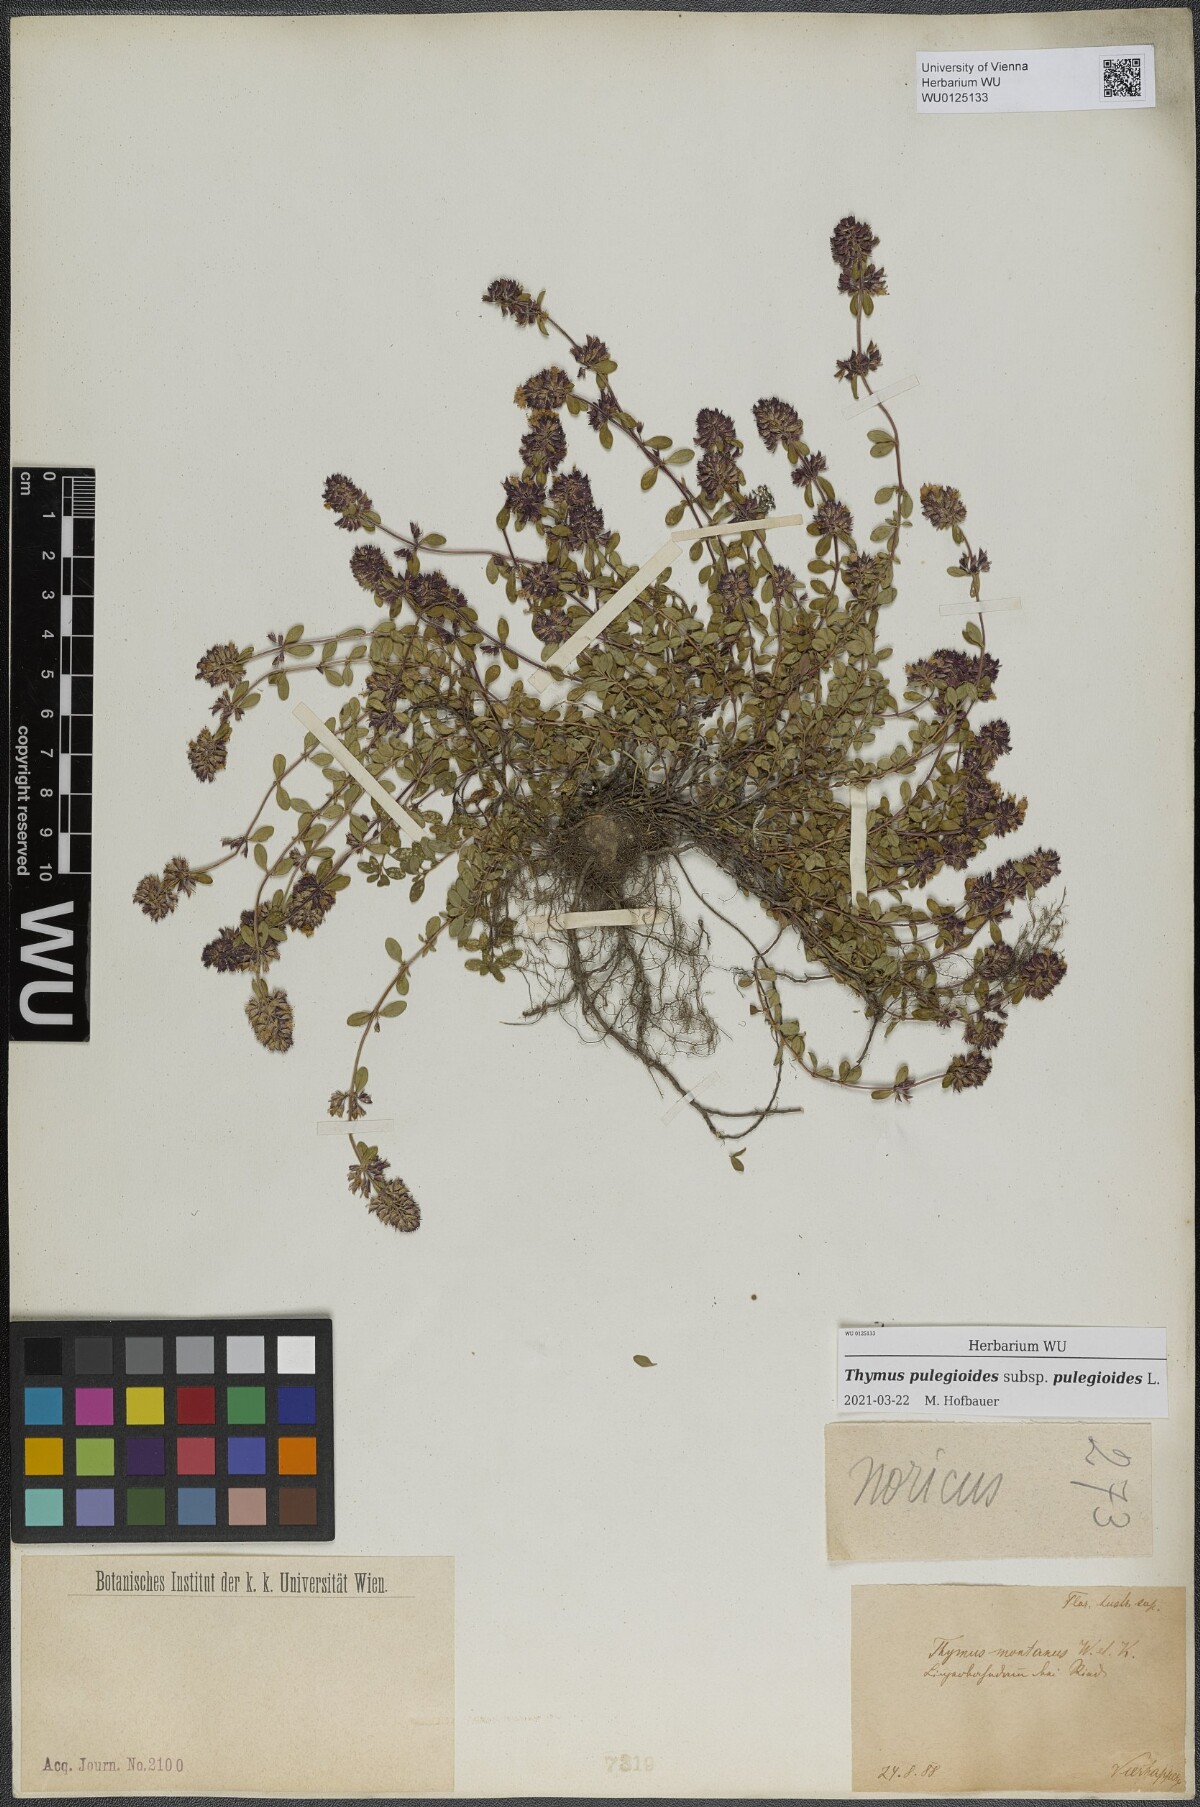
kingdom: Plantae
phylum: Tracheophyta
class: Magnoliopsida
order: Lamiales
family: Lamiaceae
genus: Thymus
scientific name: Thymus pulegioides
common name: Large thyme
